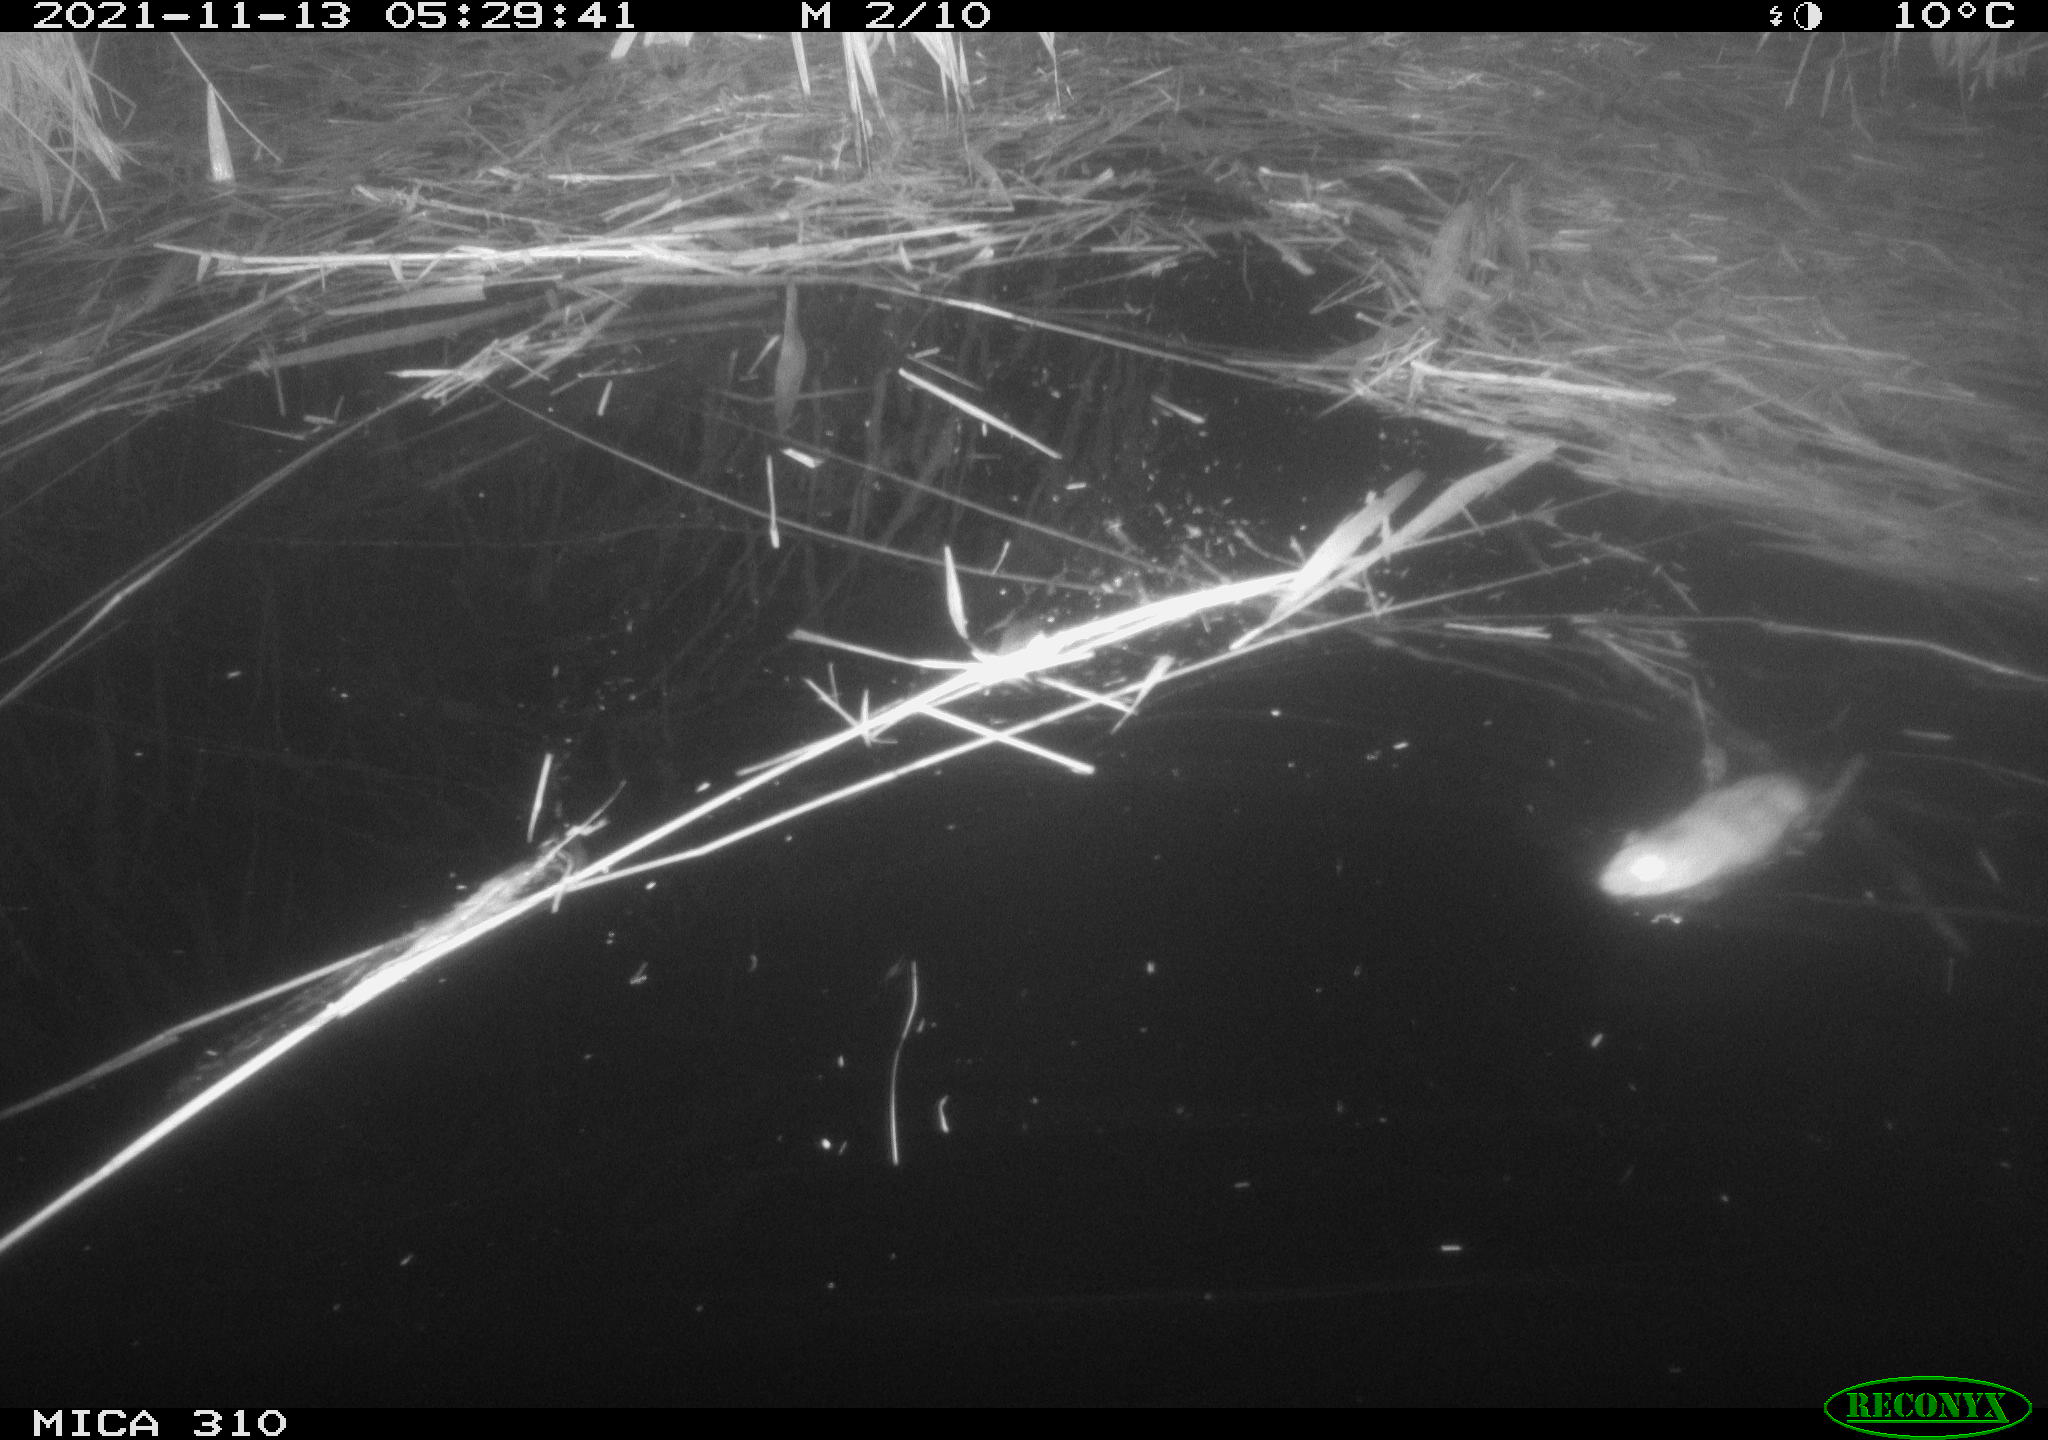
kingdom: Animalia
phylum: Chordata
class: Mammalia
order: Rodentia
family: Muridae
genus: Rattus
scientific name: Rattus norvegicus
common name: Brown rat
